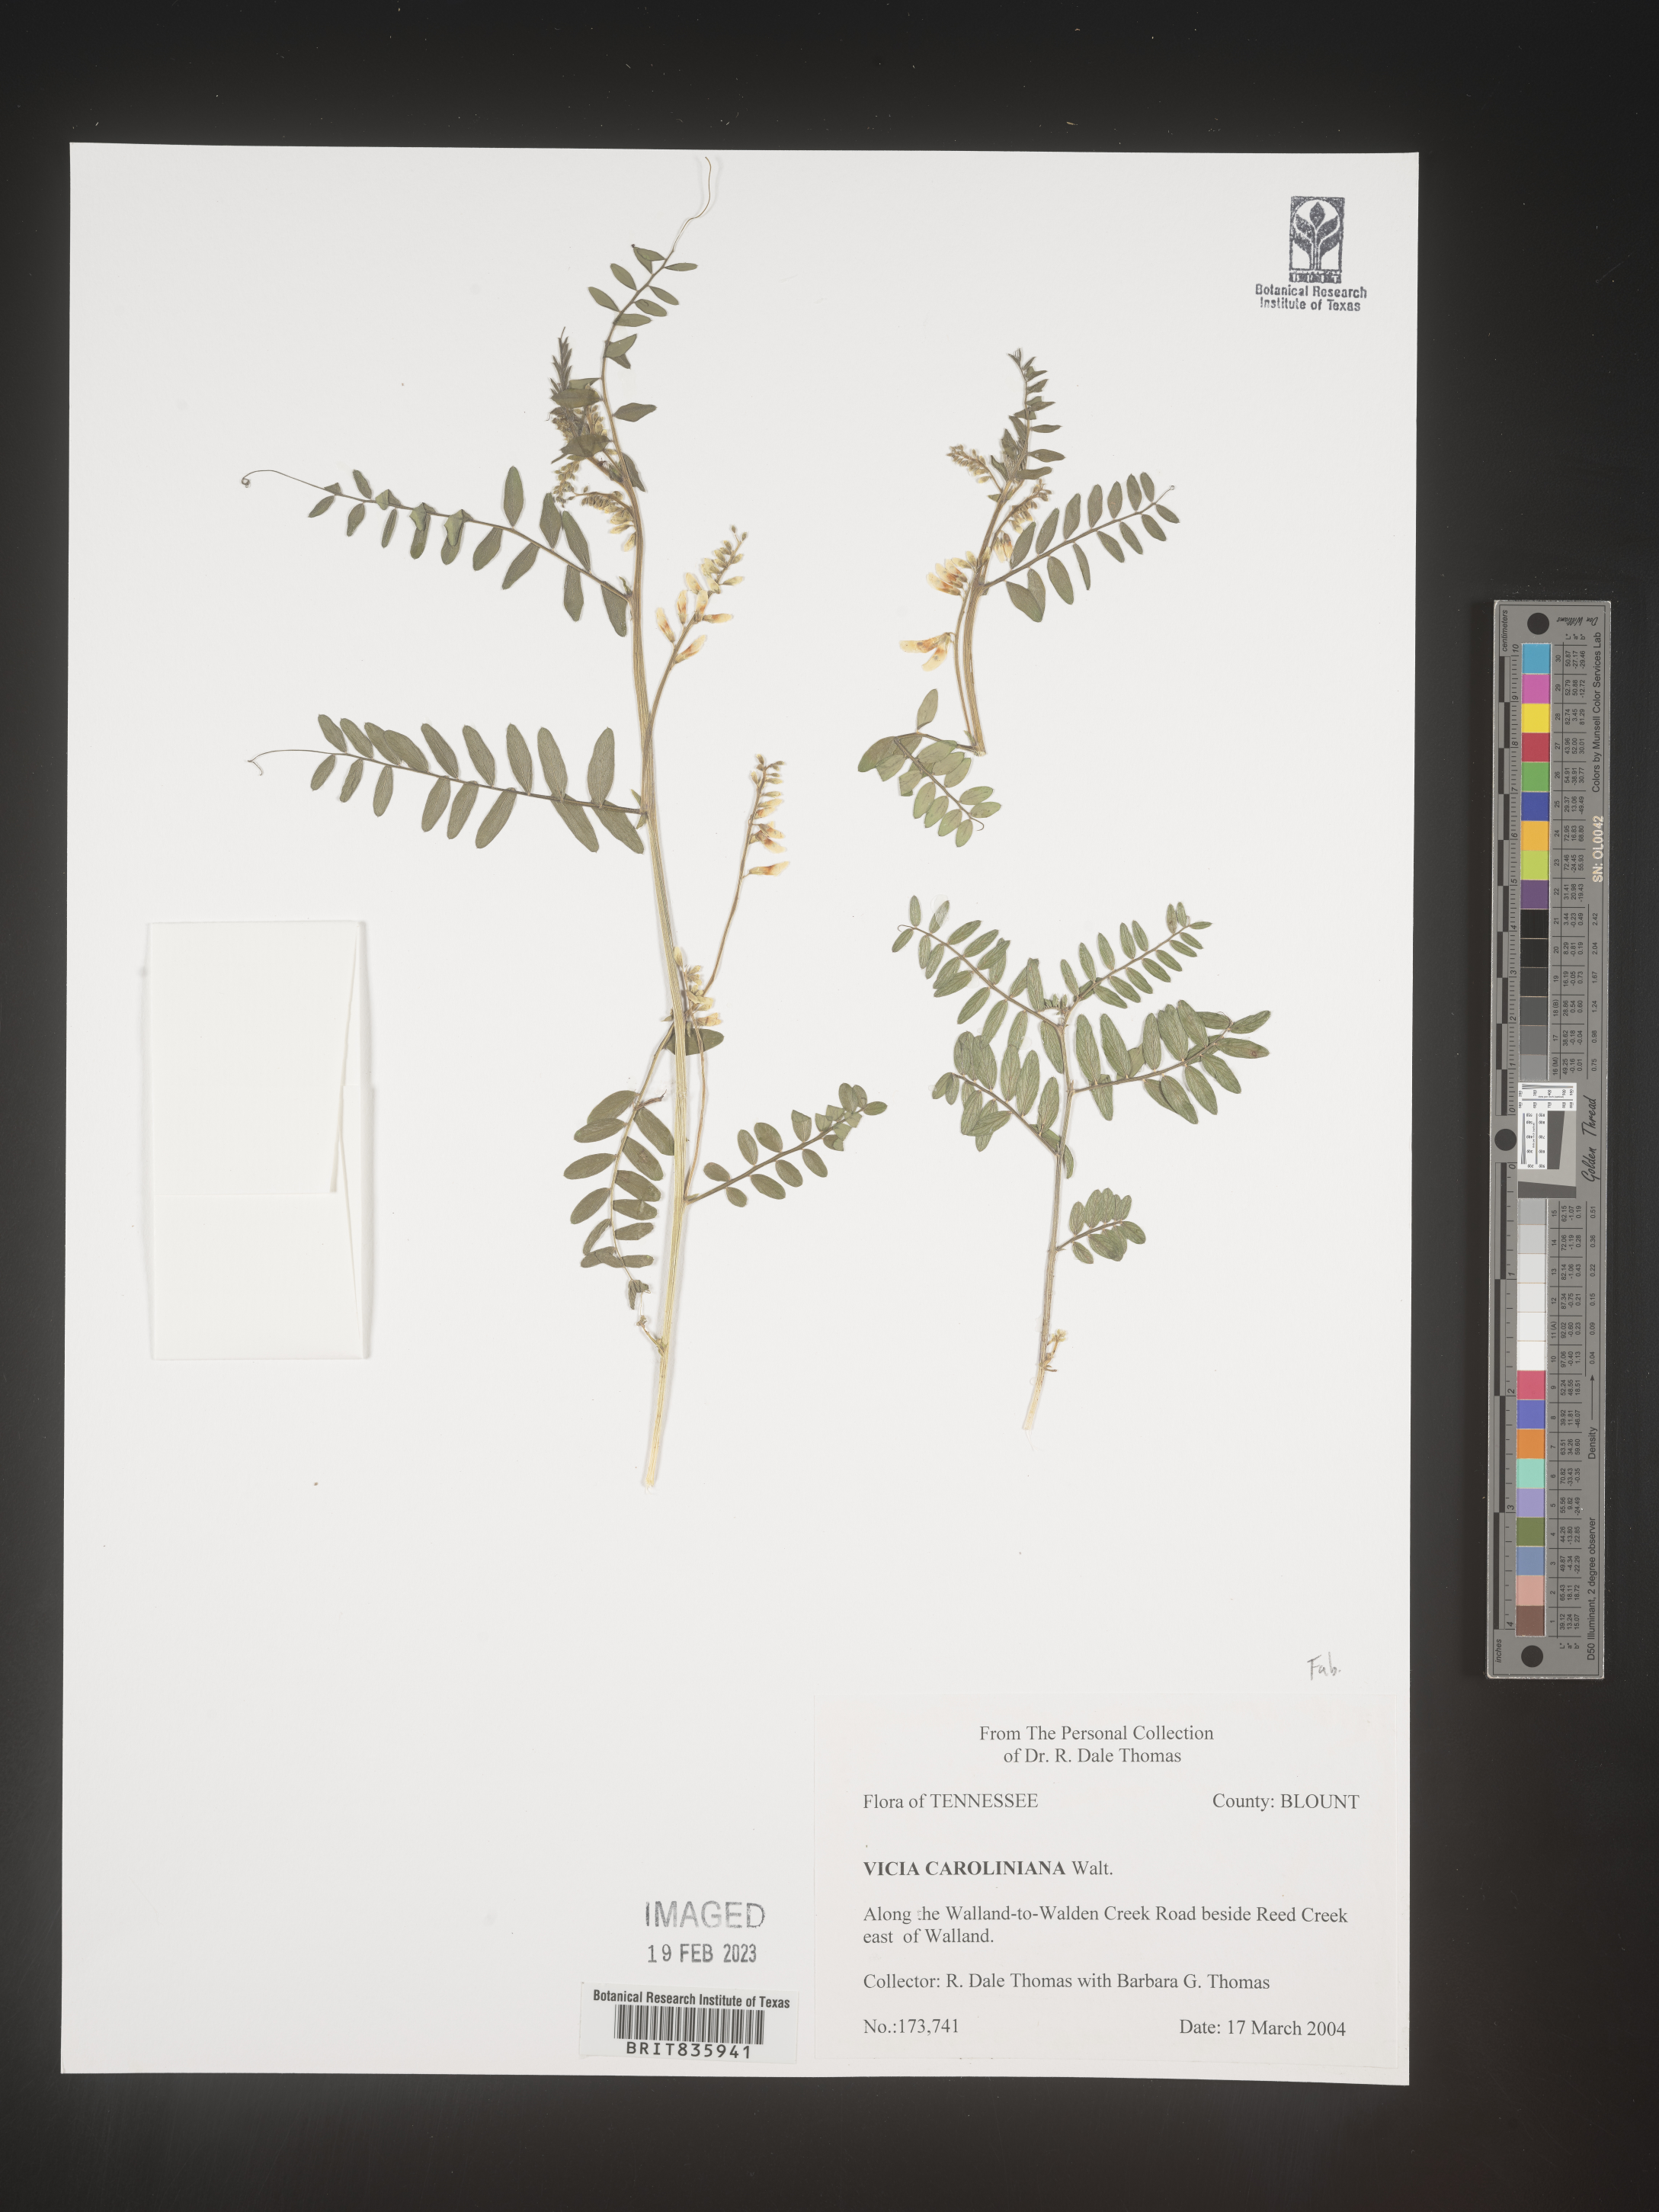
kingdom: Plantae
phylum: Tracheophyta
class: Magnoliopsida
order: Fabales
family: Fabaceae
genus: Vicia
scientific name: Vicia caroliniana
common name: Carolina vetch
